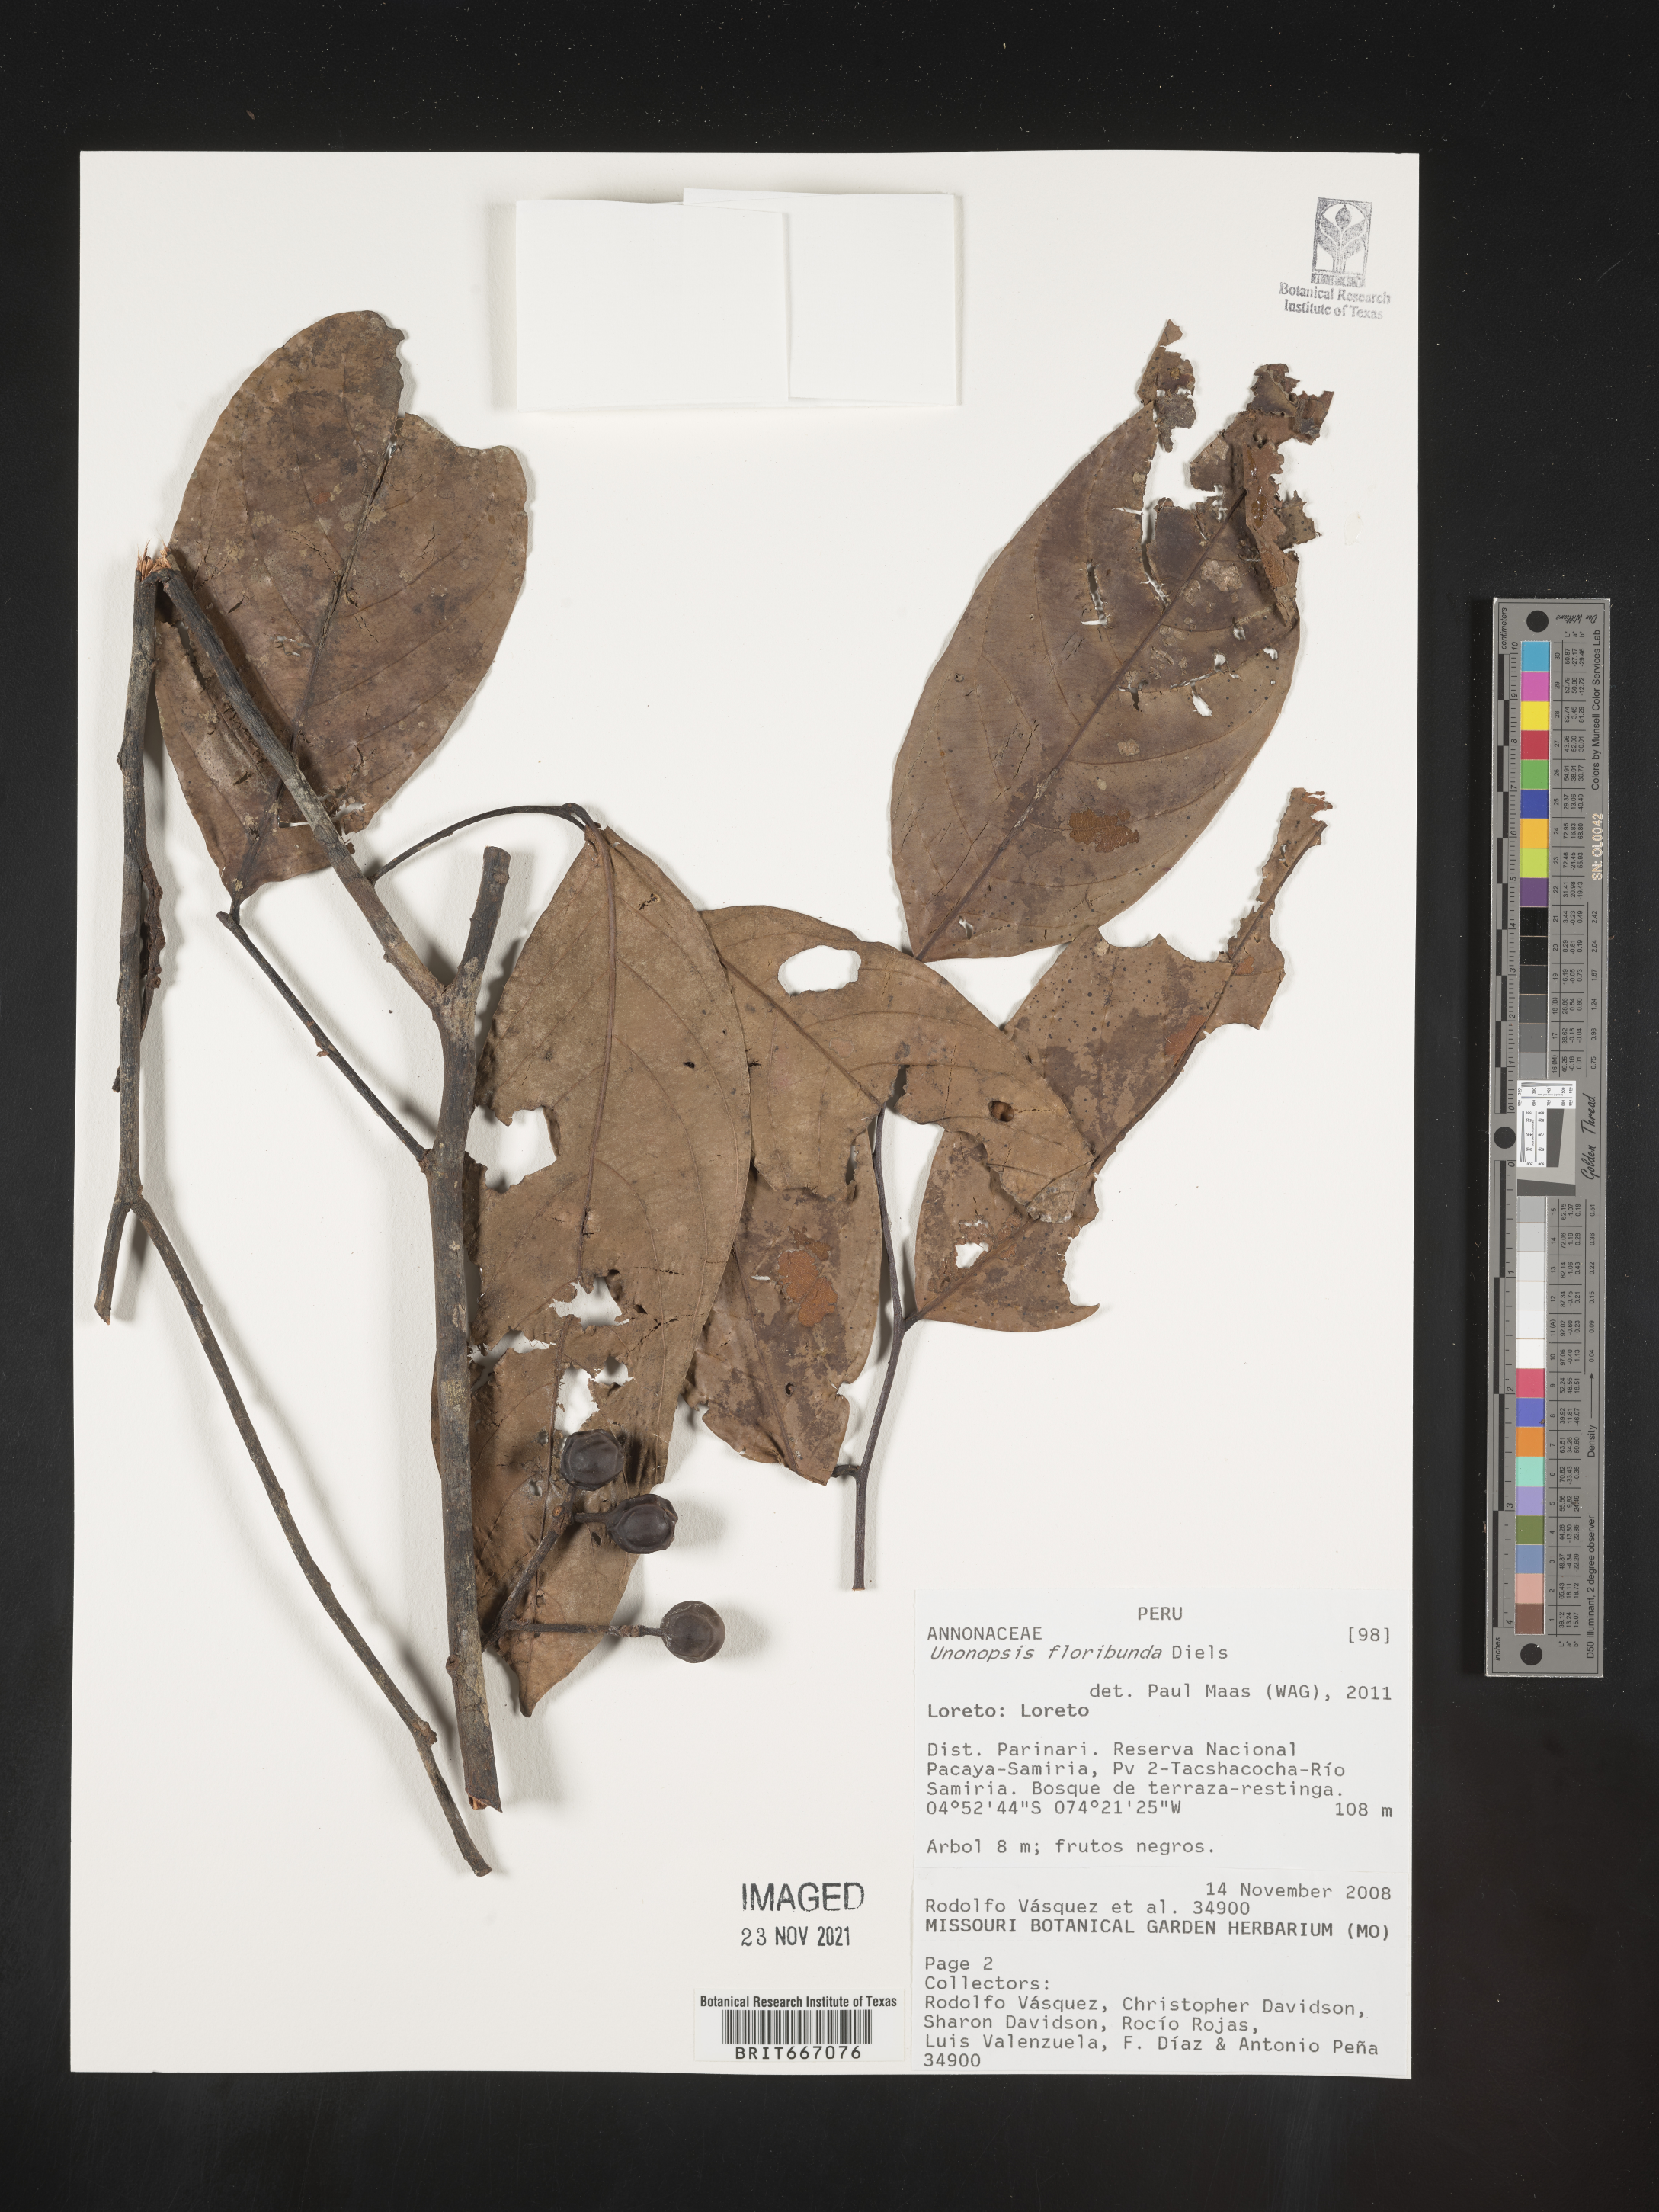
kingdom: Plantae
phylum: Tracheophyta
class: Magnoliopsida
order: Magnoliales
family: Annonaceae
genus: Unonopsis
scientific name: Unonopsis
